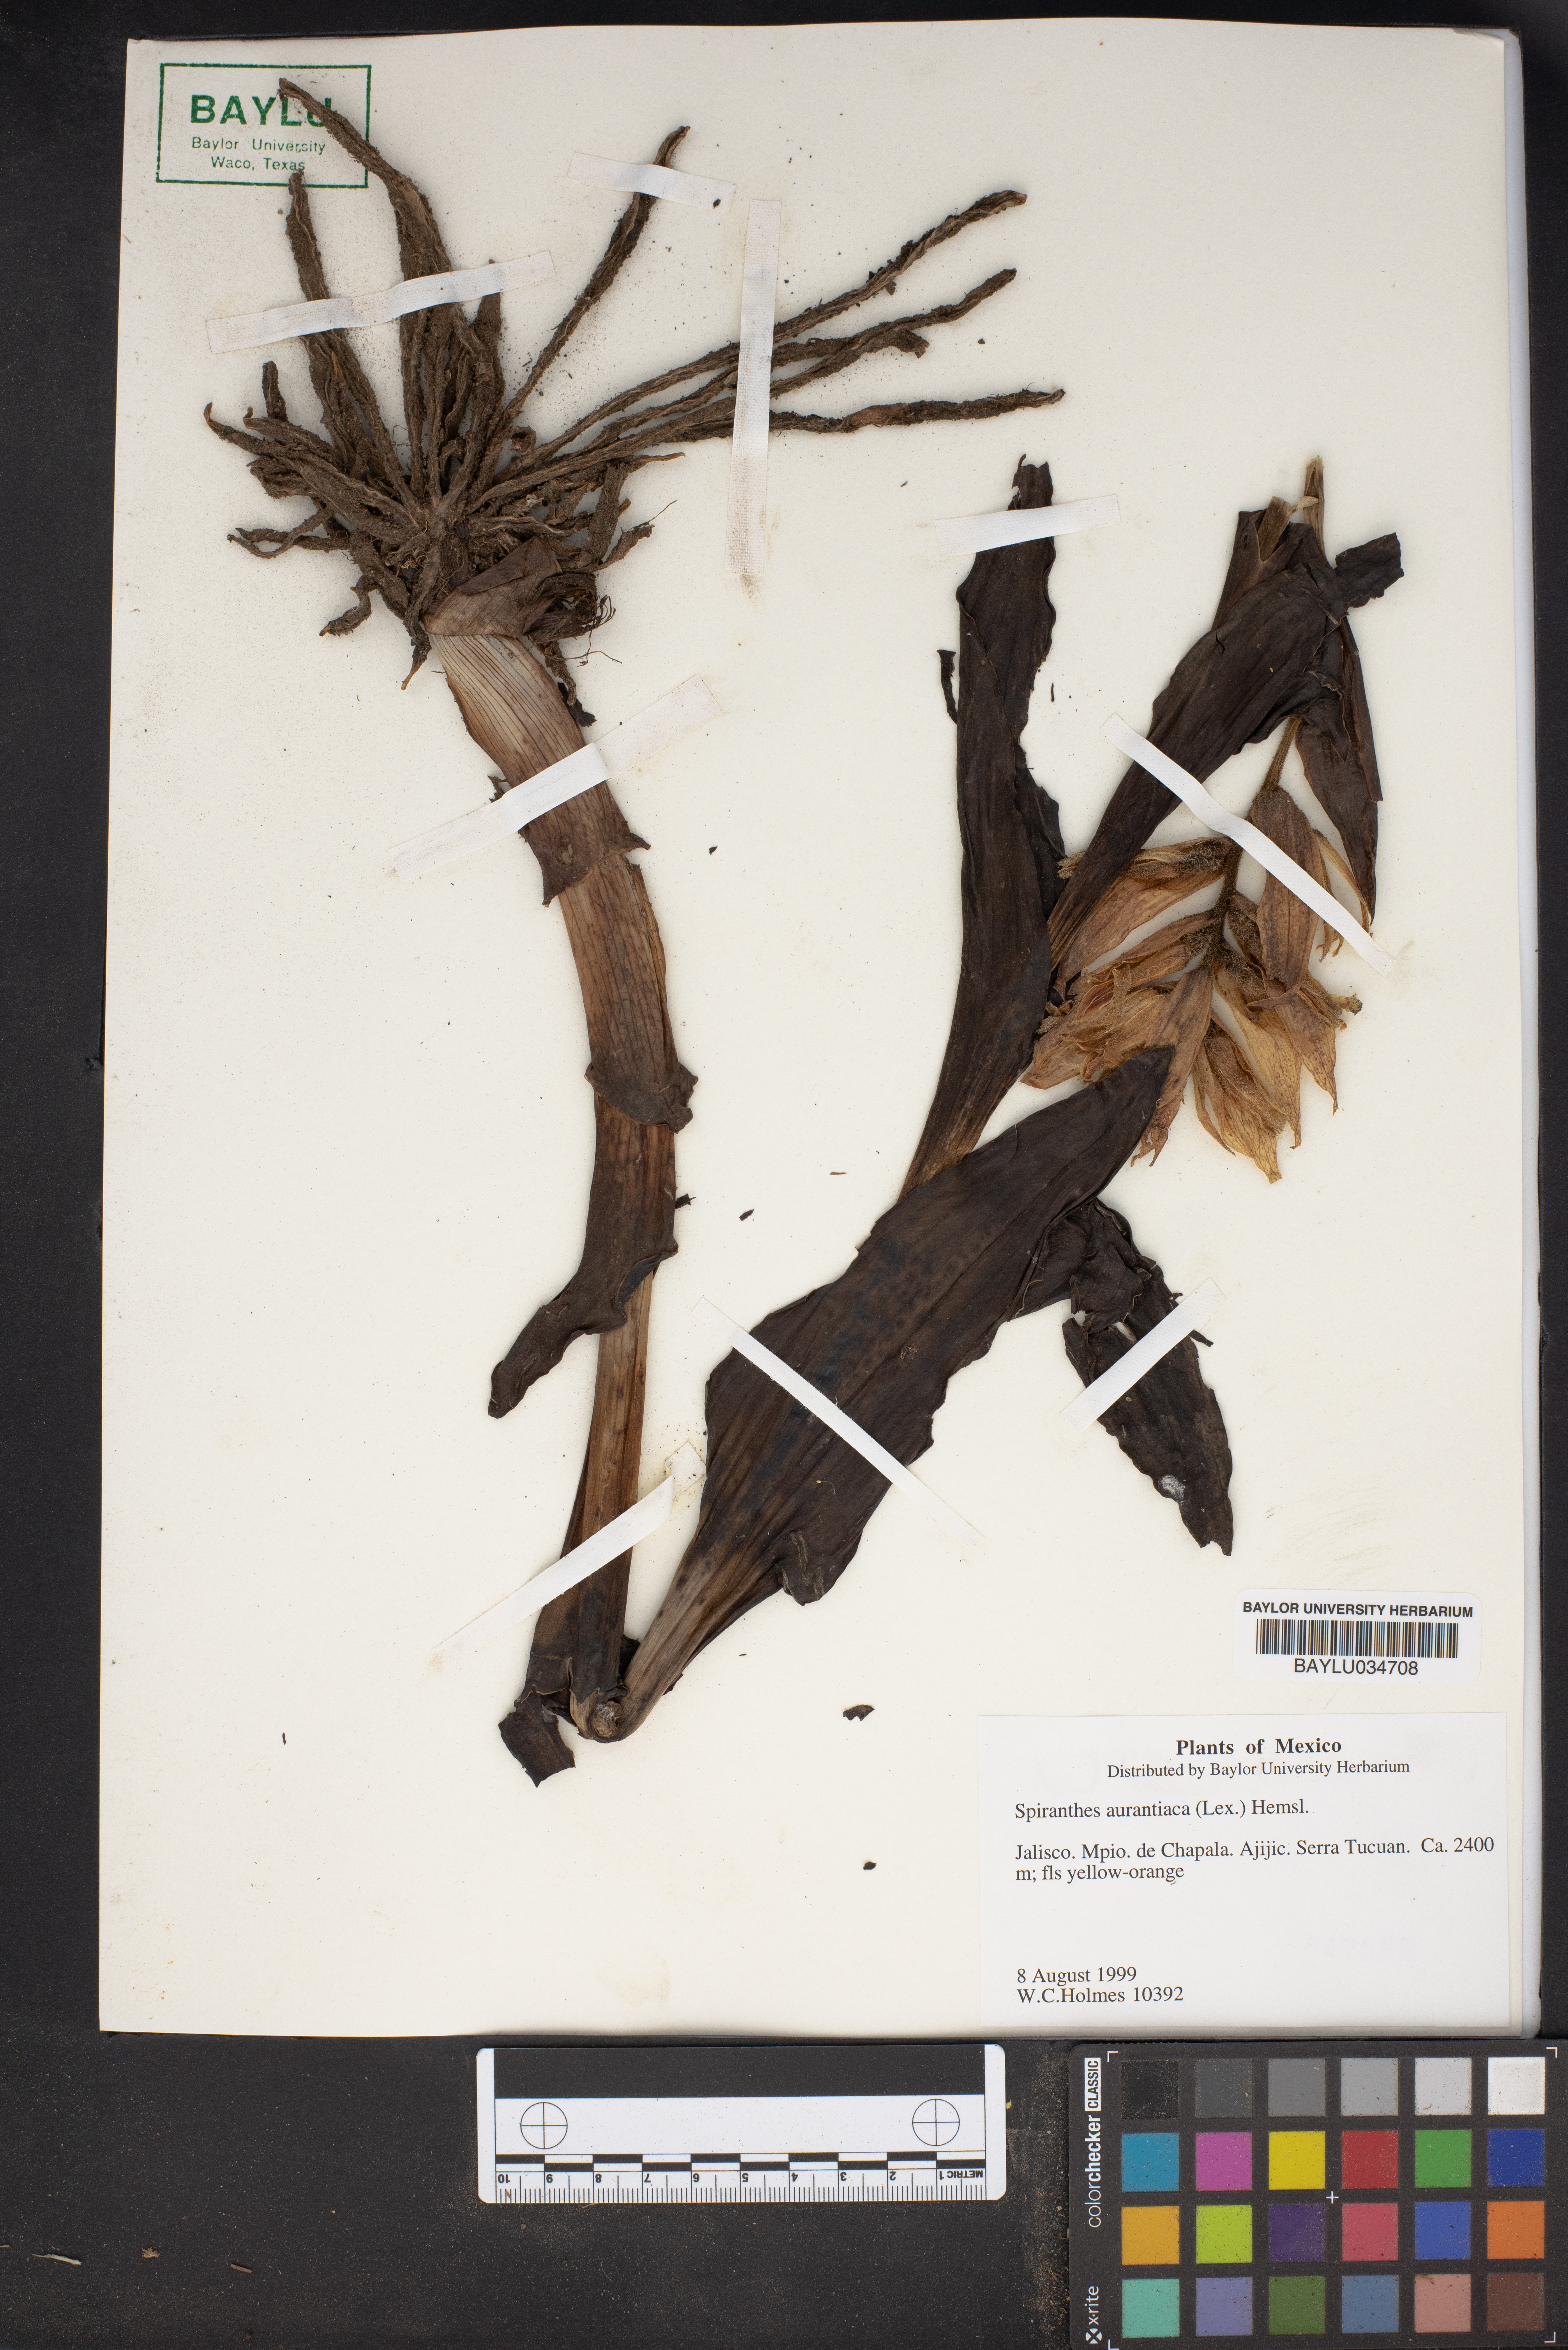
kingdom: Plantae
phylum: Tracheophyta
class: Liliopsida
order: Asparagales
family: Orchidaceae
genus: Dichromanthus
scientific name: Dichromanthus aurantiacus
